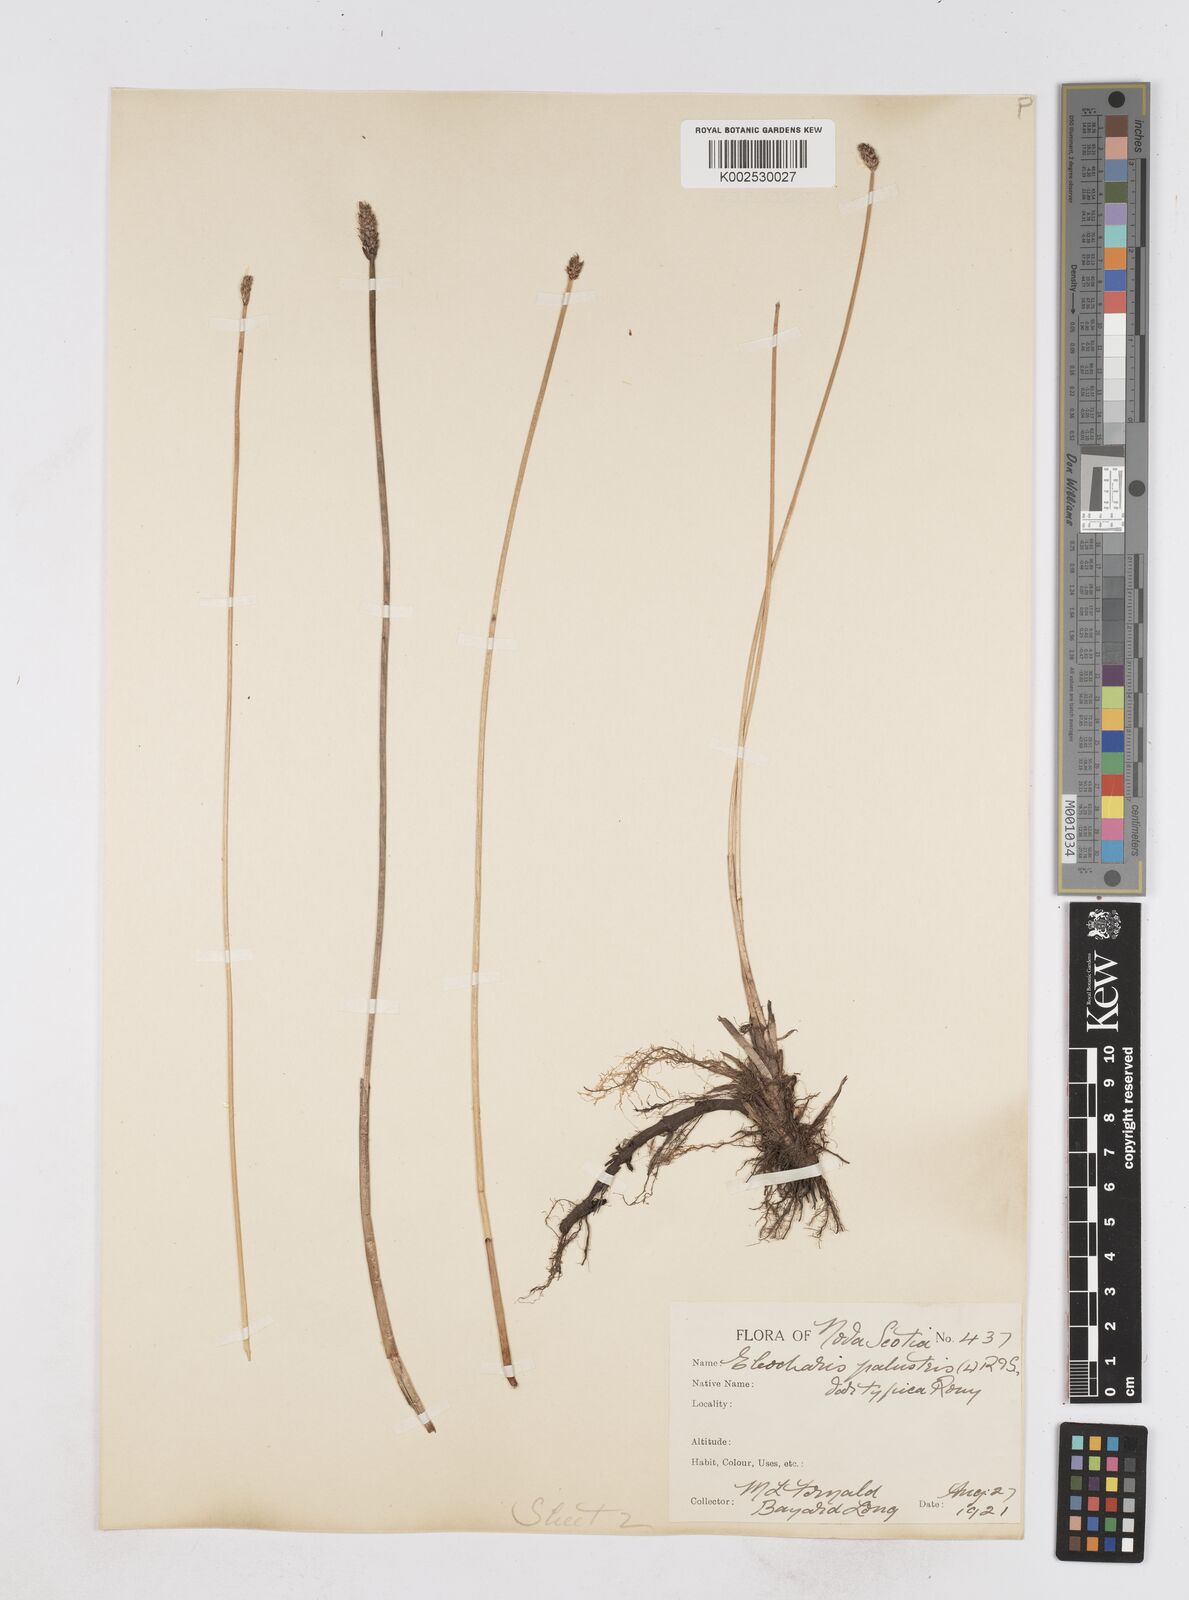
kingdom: Plantae
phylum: Tracheophyta
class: Liliopsida
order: Poales
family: Cyperaceae
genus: Eleocharis
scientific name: Eleocharis palustris
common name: Common spike-rush
